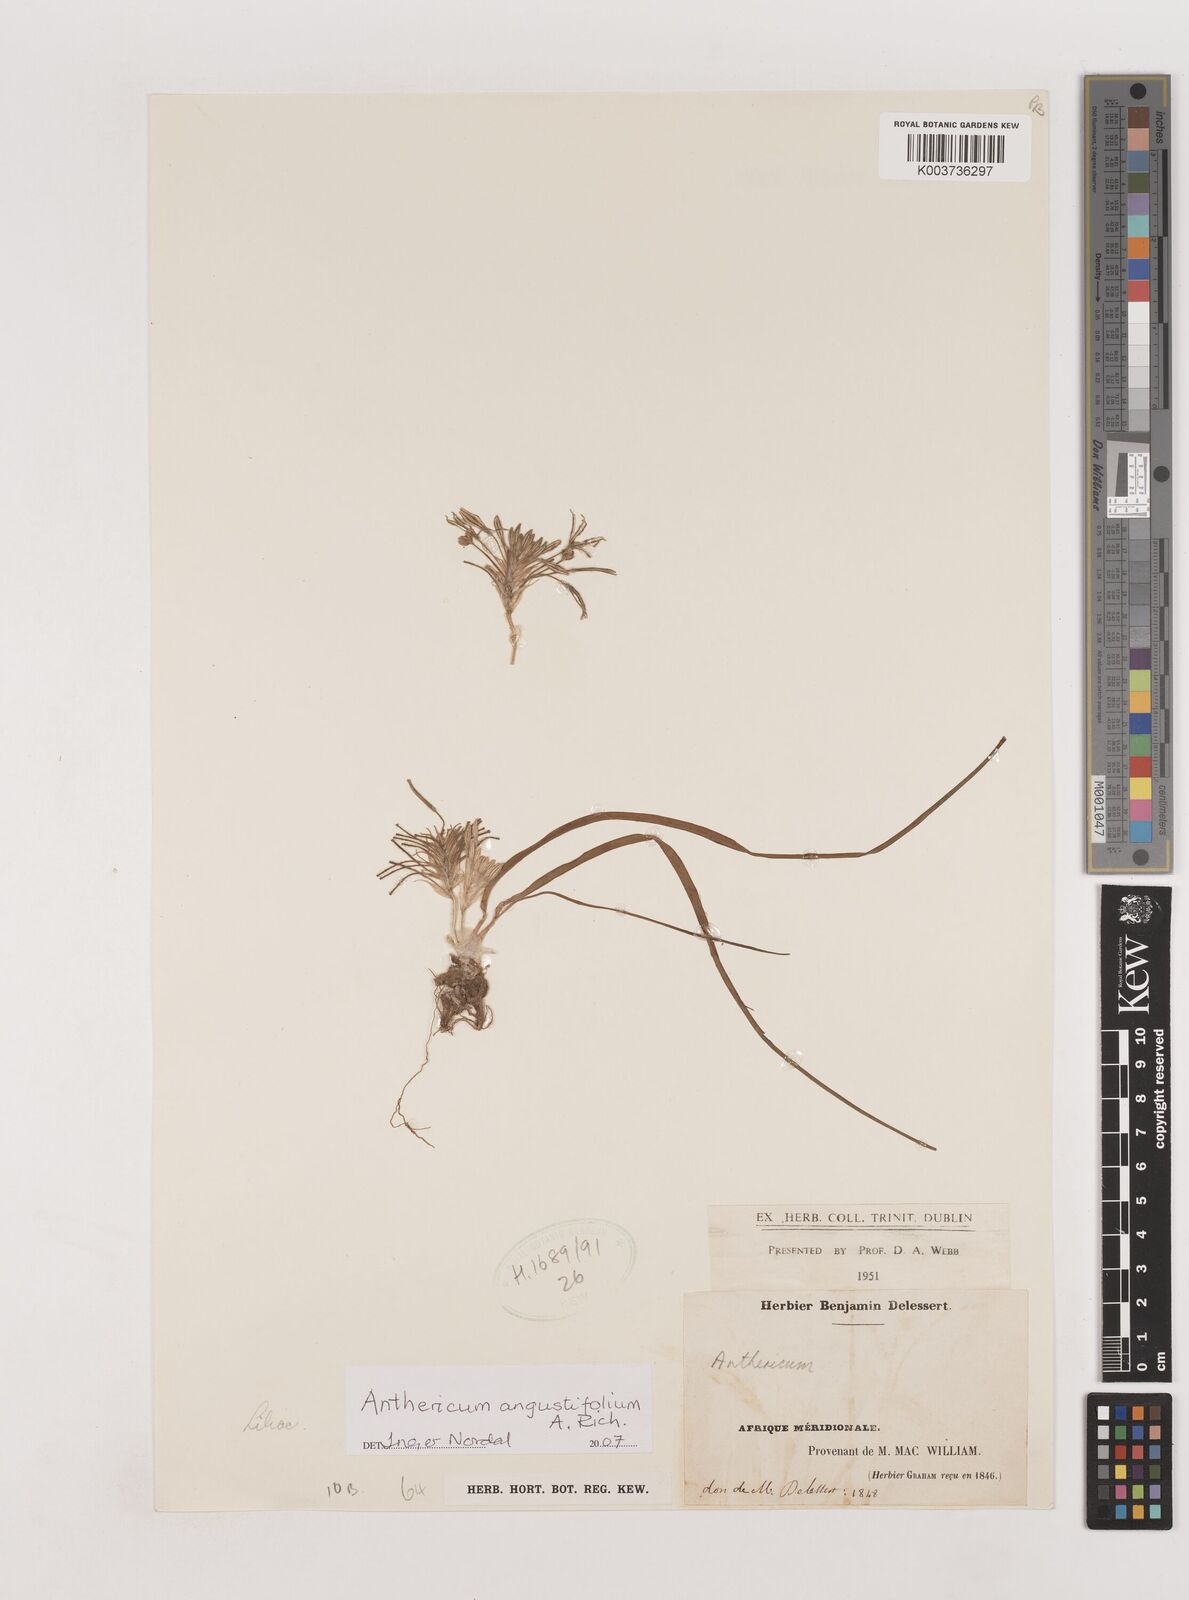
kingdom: Plantae
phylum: Tracheophyta
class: Liliopsida
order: Asparagales
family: Asparagaceae
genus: Anthericum
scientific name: Anthericum
